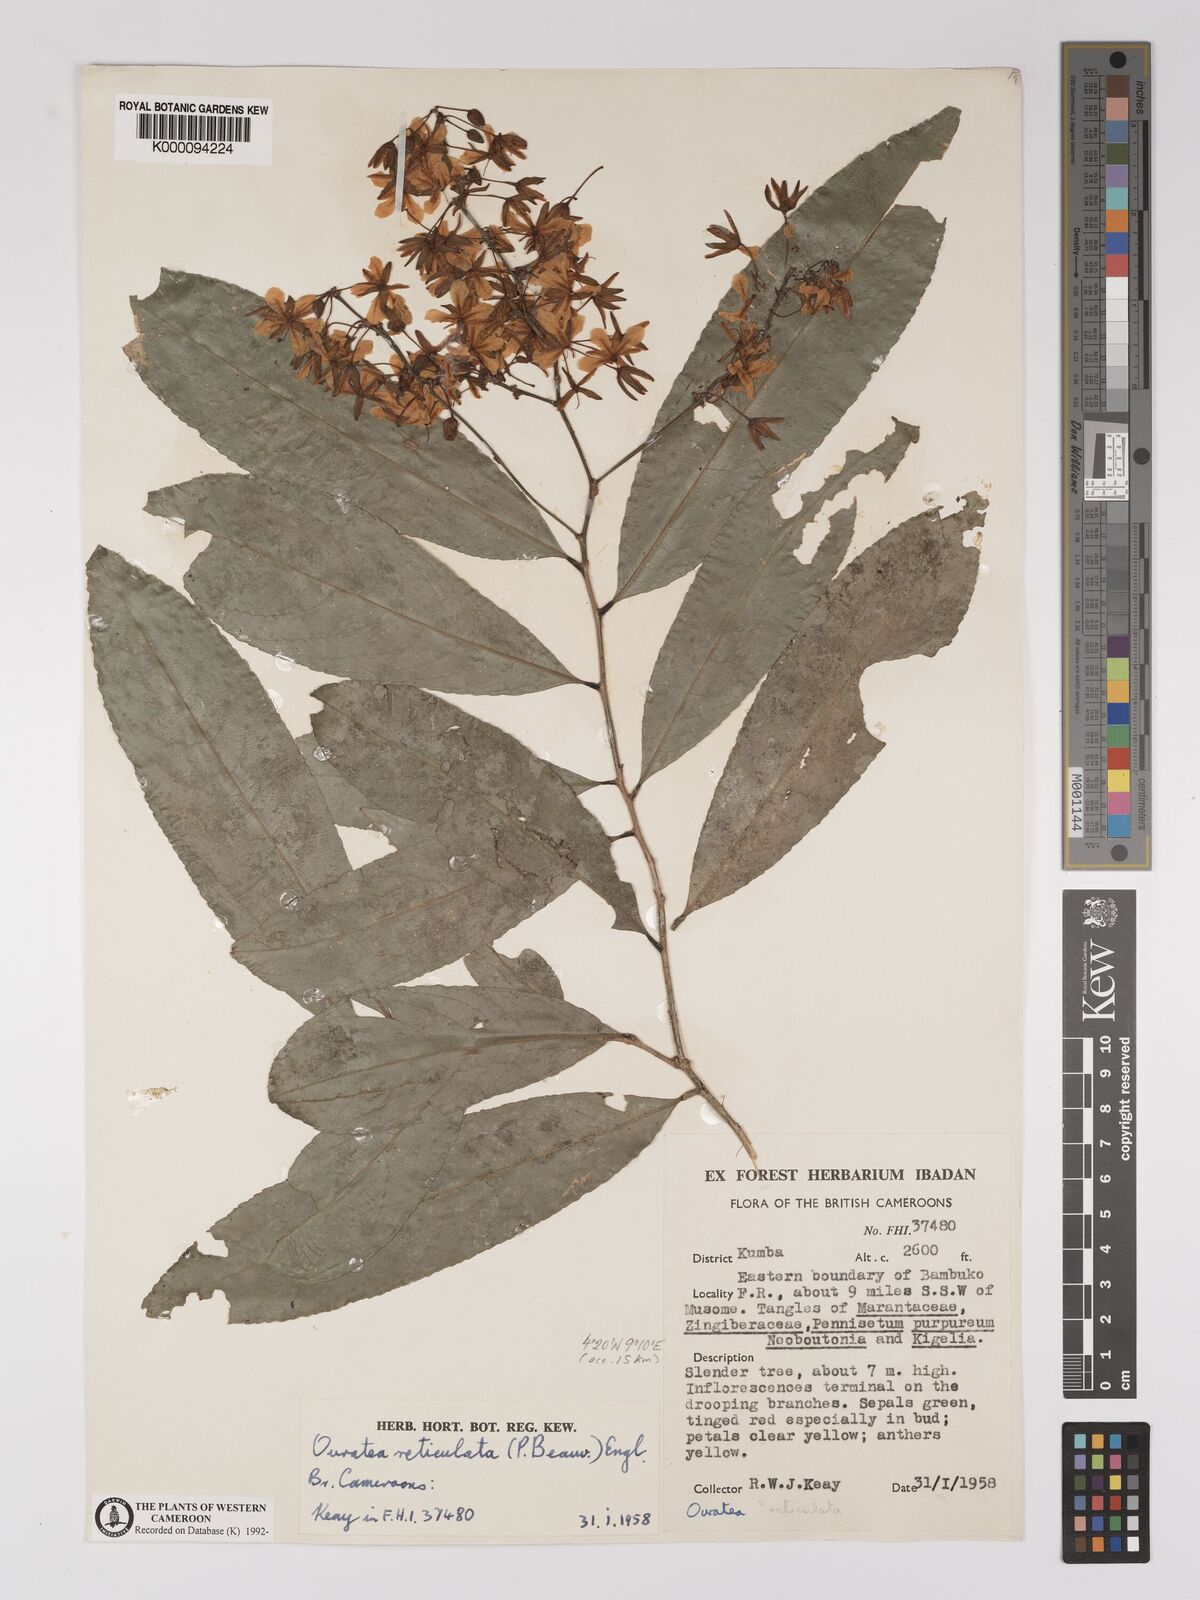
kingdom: Plantae
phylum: Tracheophyta
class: Magnoliopsida
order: Malpighiales
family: Ochnaceae
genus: Campylospermum
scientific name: Campylospermum reticulatum
